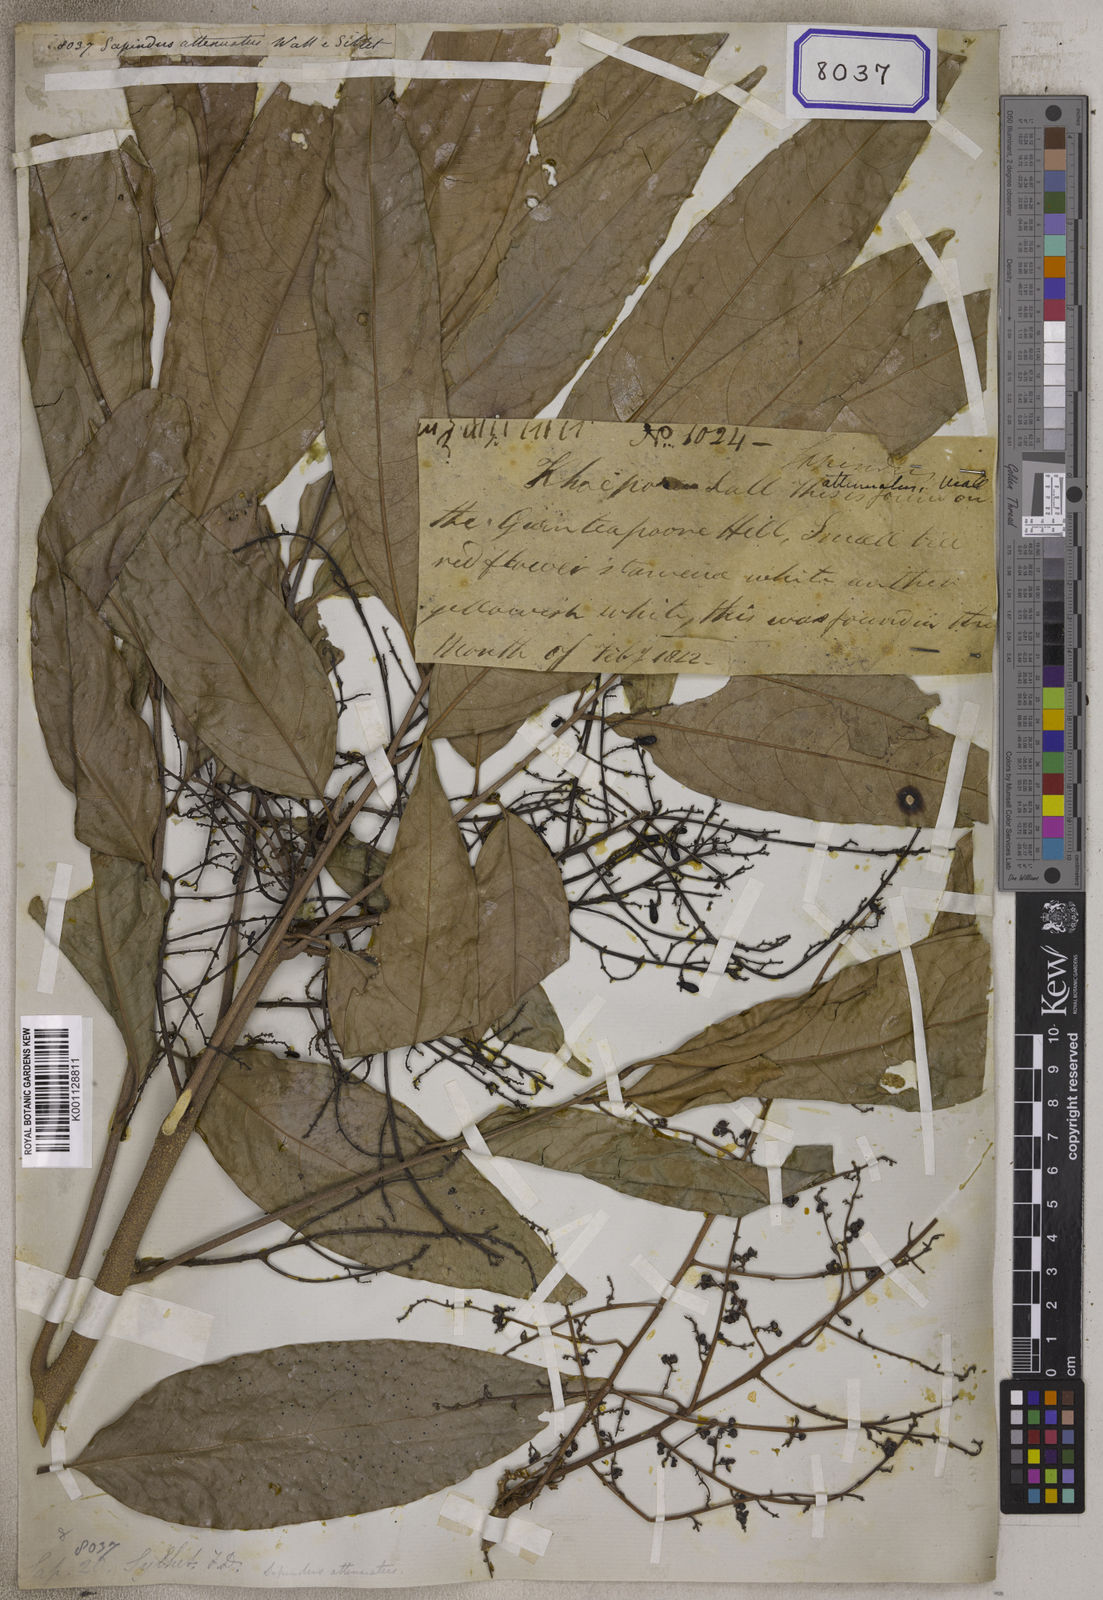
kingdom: Plantae
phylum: Tracheophyta
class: Magnoliopsida
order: Sapindales
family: Sapindaceae
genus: Sapindus
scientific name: Sapindus
